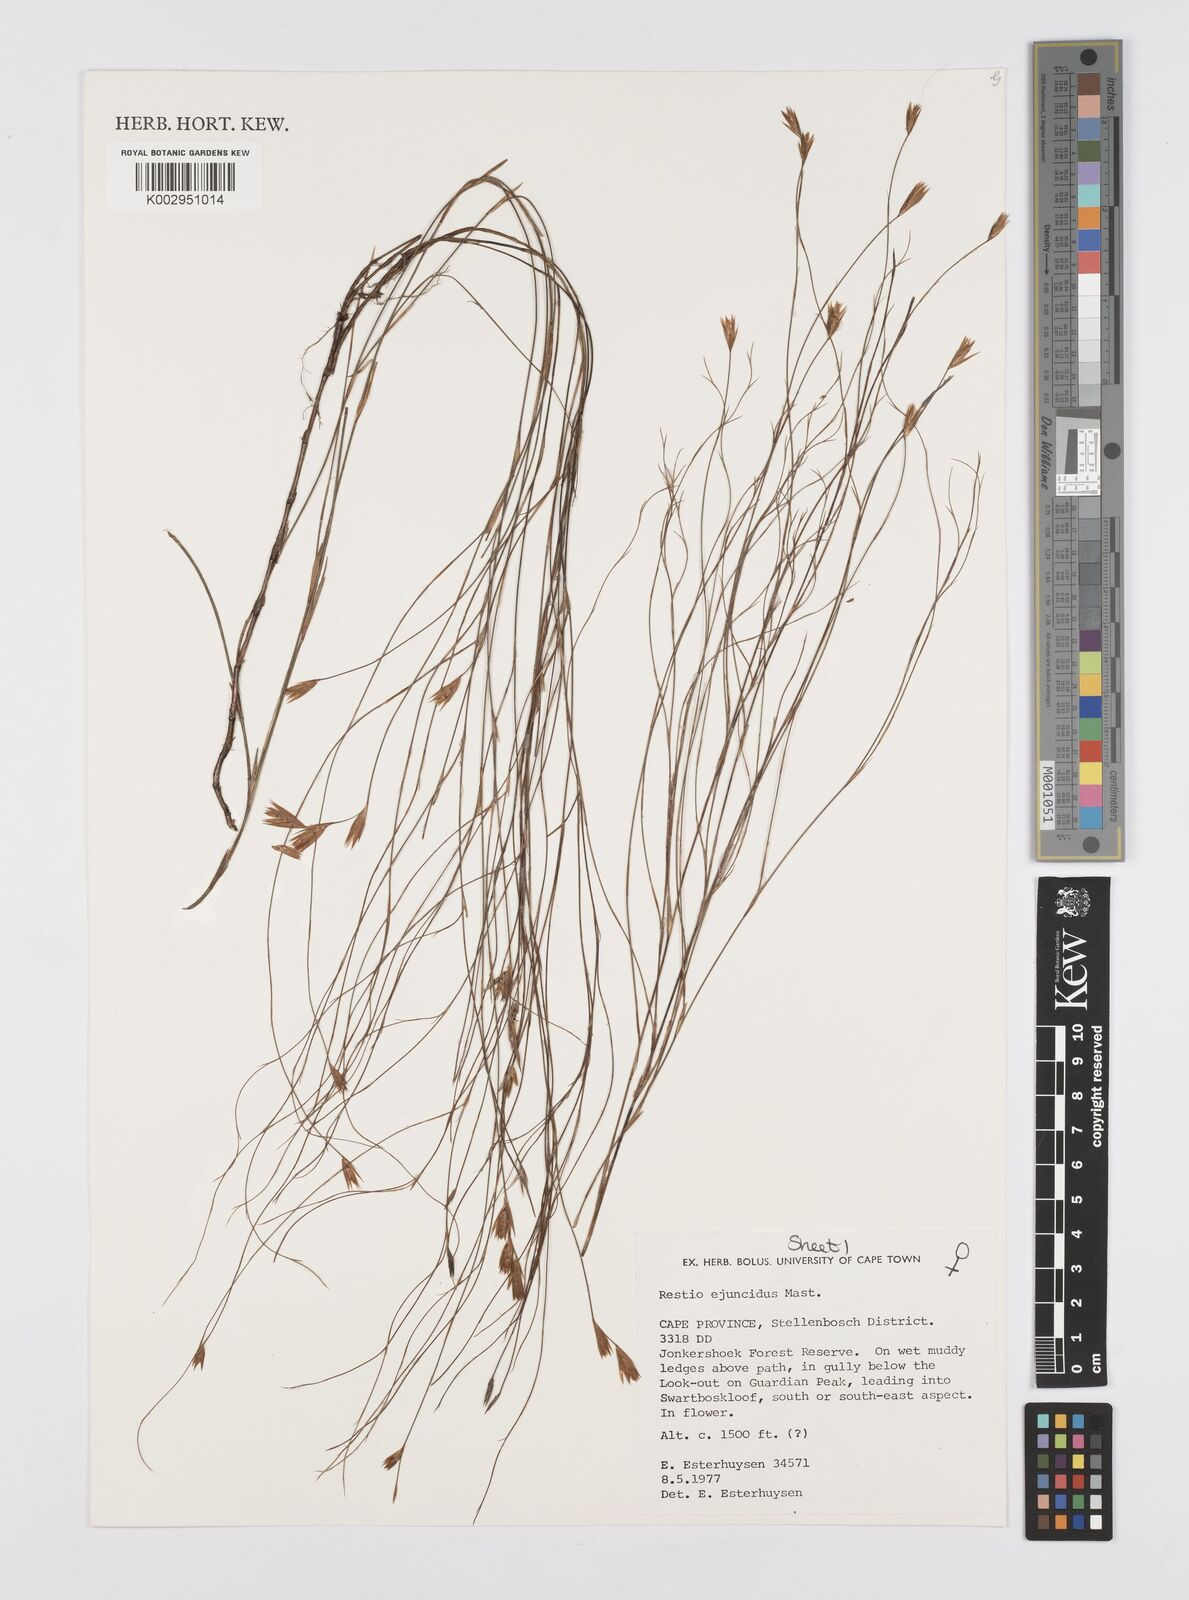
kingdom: Plantae
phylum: Tracheophyta
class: Liliopsida
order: Poales
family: Restionaceae
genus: Restio
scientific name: Restio ejuncidus
